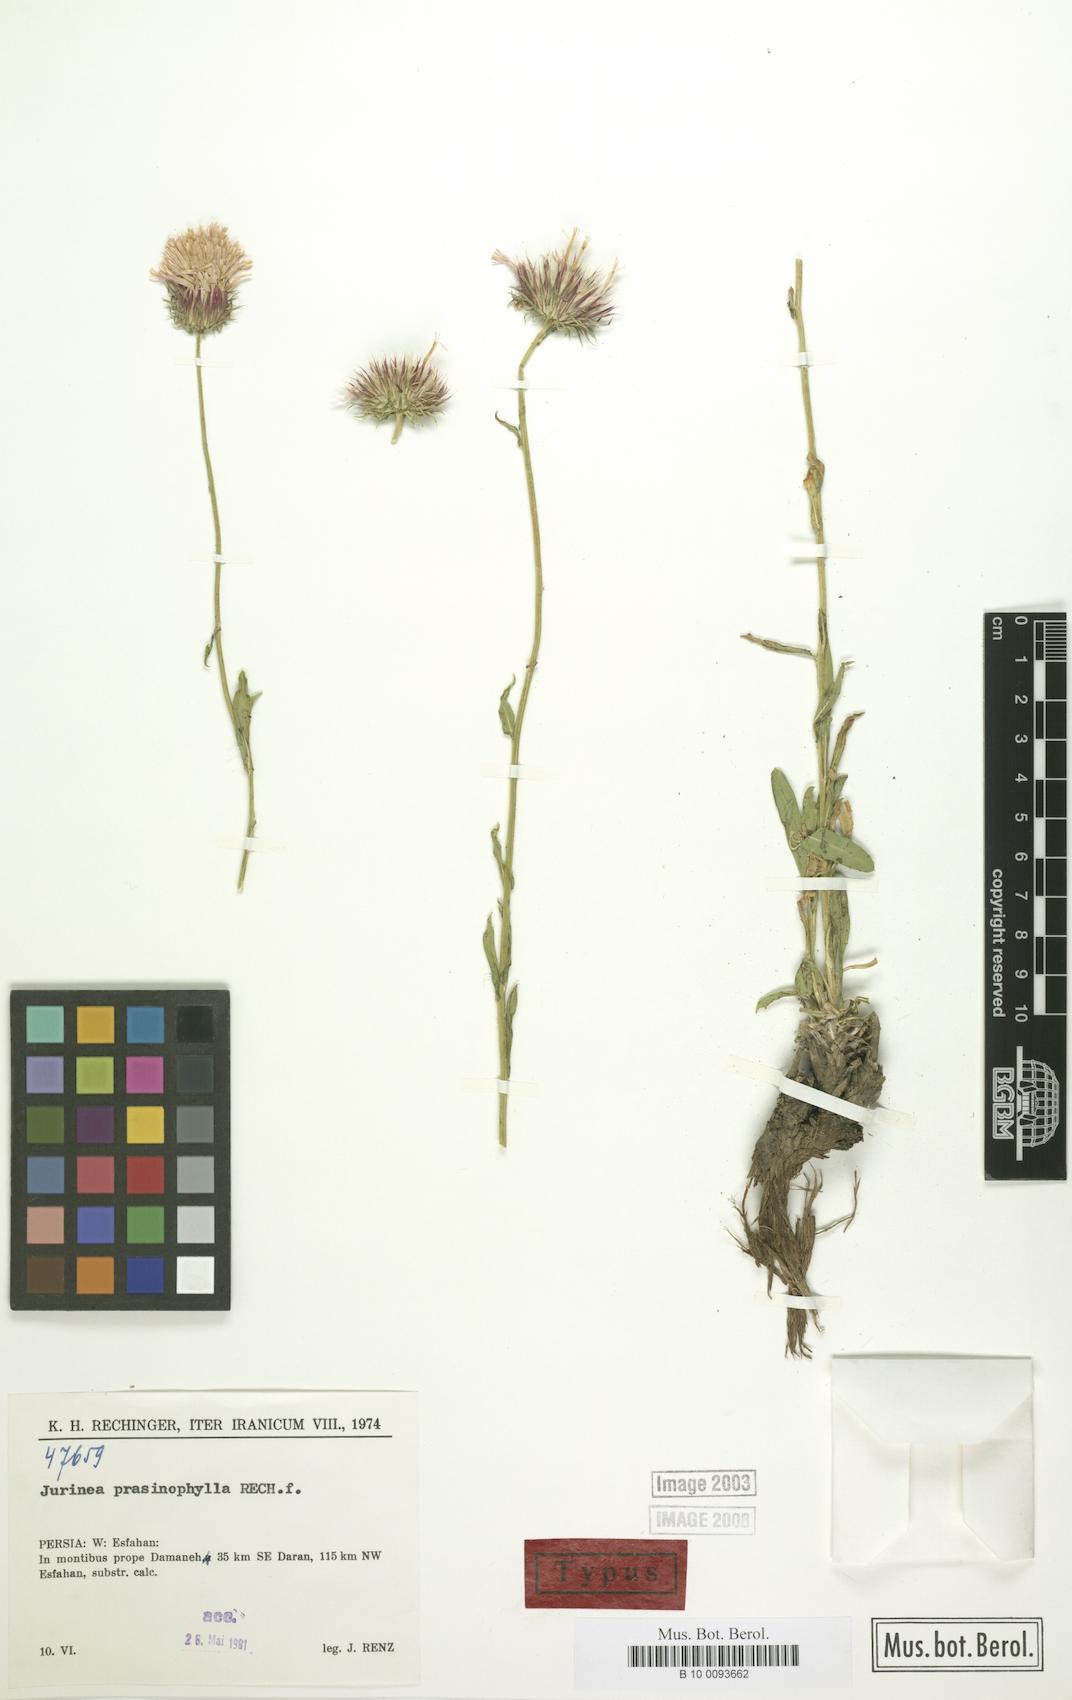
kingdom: Plantae
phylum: Tracheophyta
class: Magnoliopsida
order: Asterales
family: Asteraceae
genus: Jurinea
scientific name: Jurinea prasinophylla
